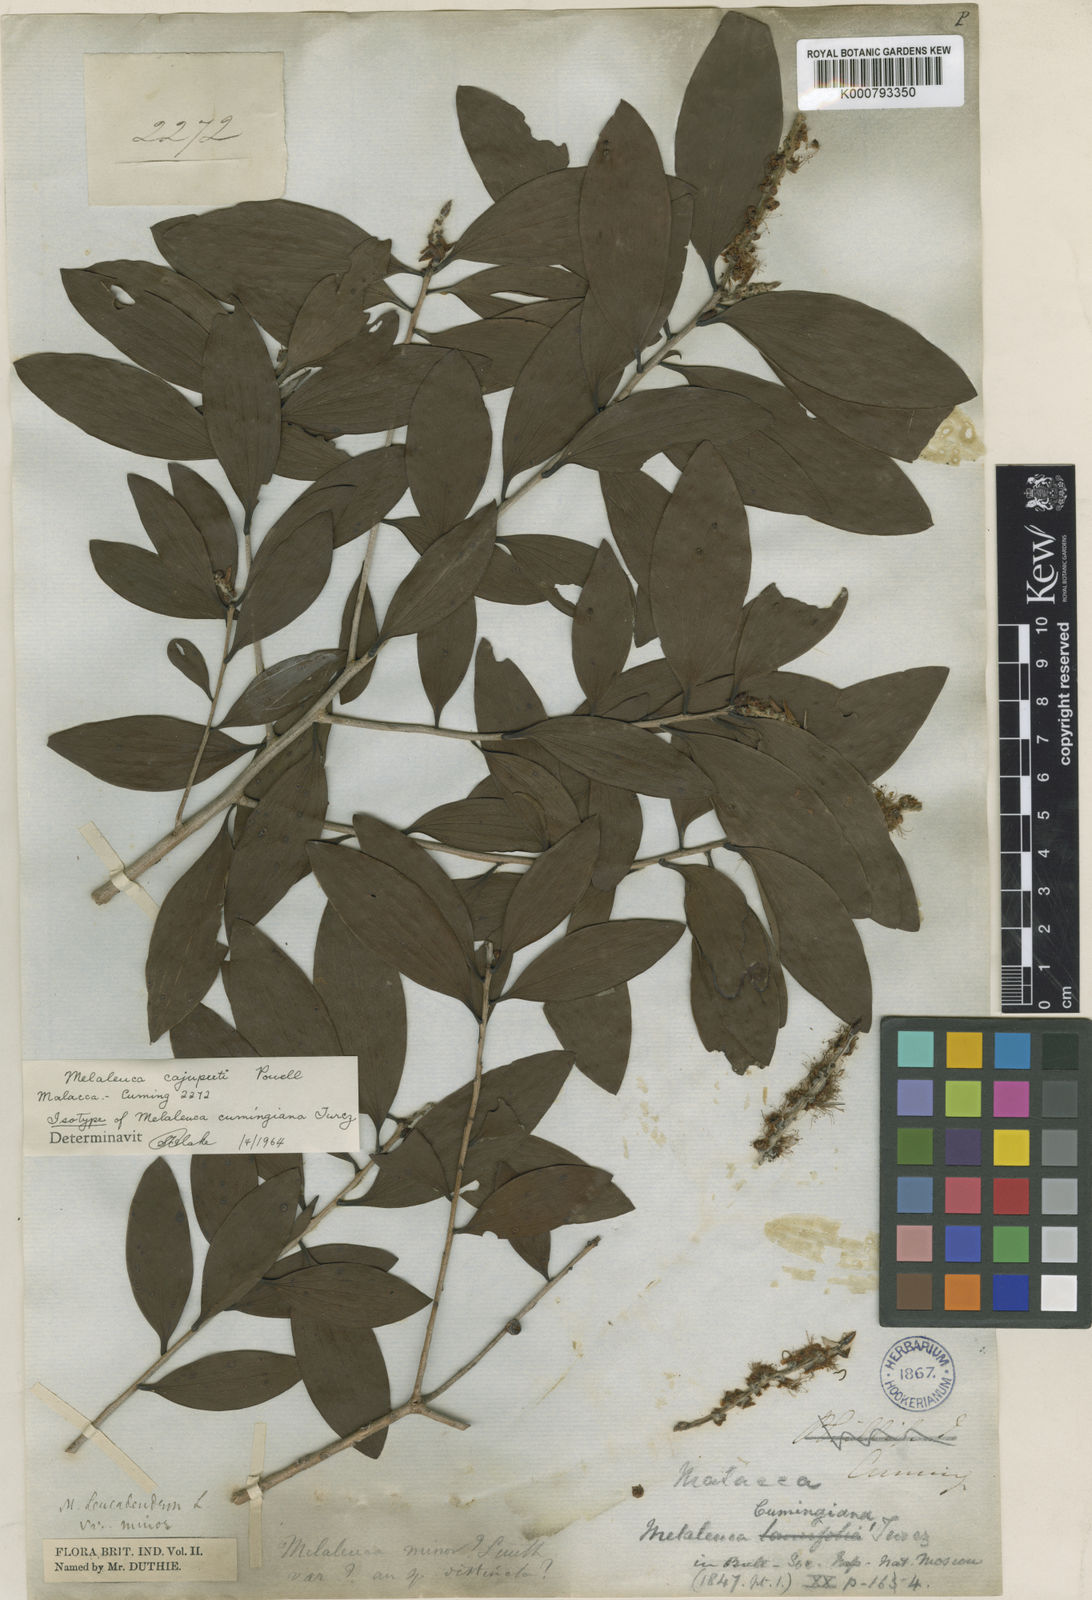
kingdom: Plantae
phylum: Tracheophyta
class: Magnoliopsida
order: Myrtales
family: Myrtaceae
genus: Melaleuca
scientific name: Melaleuca cajuputi
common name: Cajuput
